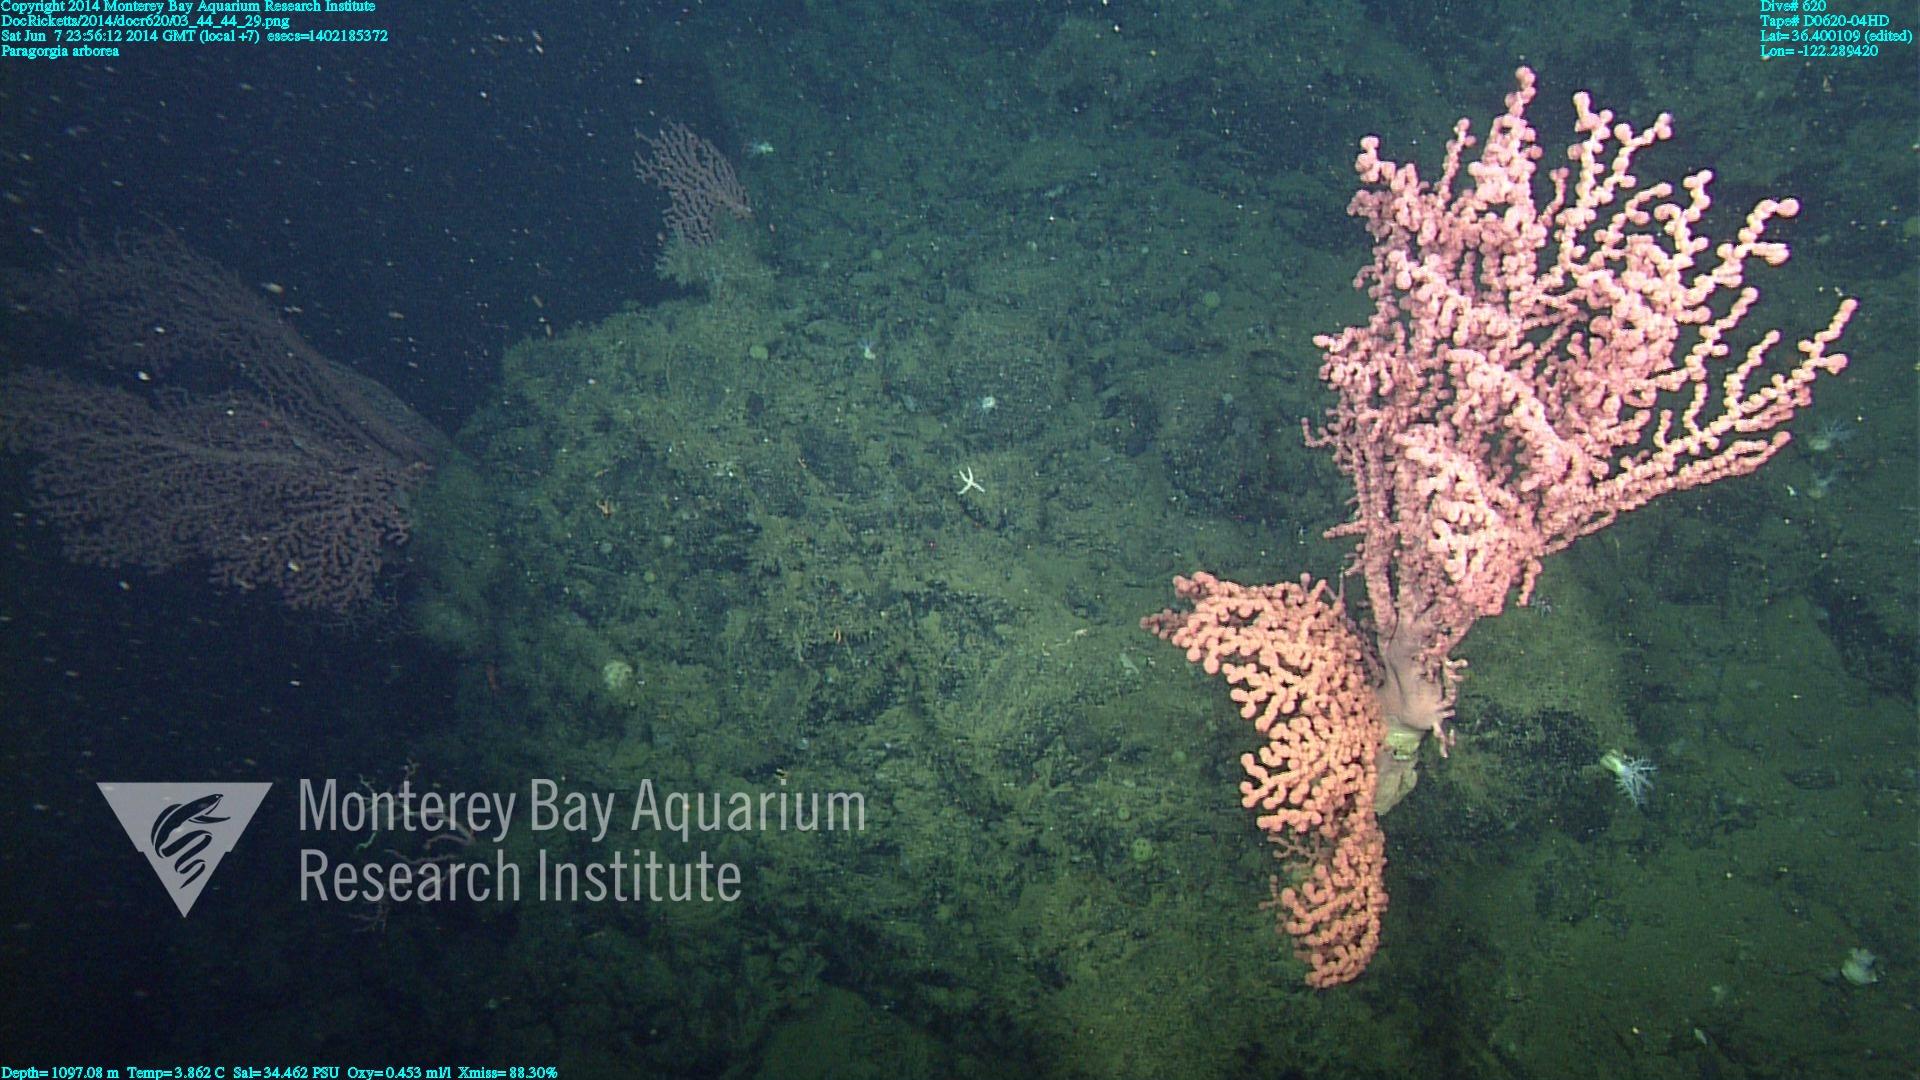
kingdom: Animalia
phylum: Cnidaria
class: Anthozoa
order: Scleralcyonacea
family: Coralliidae
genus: Paragorgia
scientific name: Paragorgia arborea
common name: Bubble gum coral
